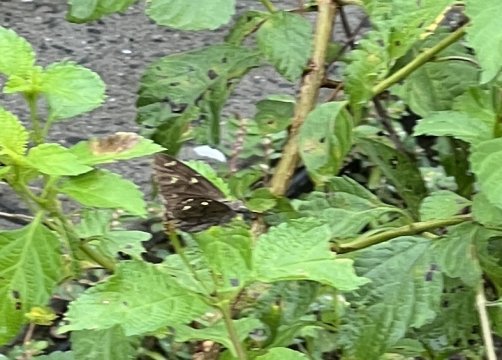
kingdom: Animalia
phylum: Arthropoda
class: Insecta
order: Lepidoptera
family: Hesperiidae
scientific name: Hesperiidae
